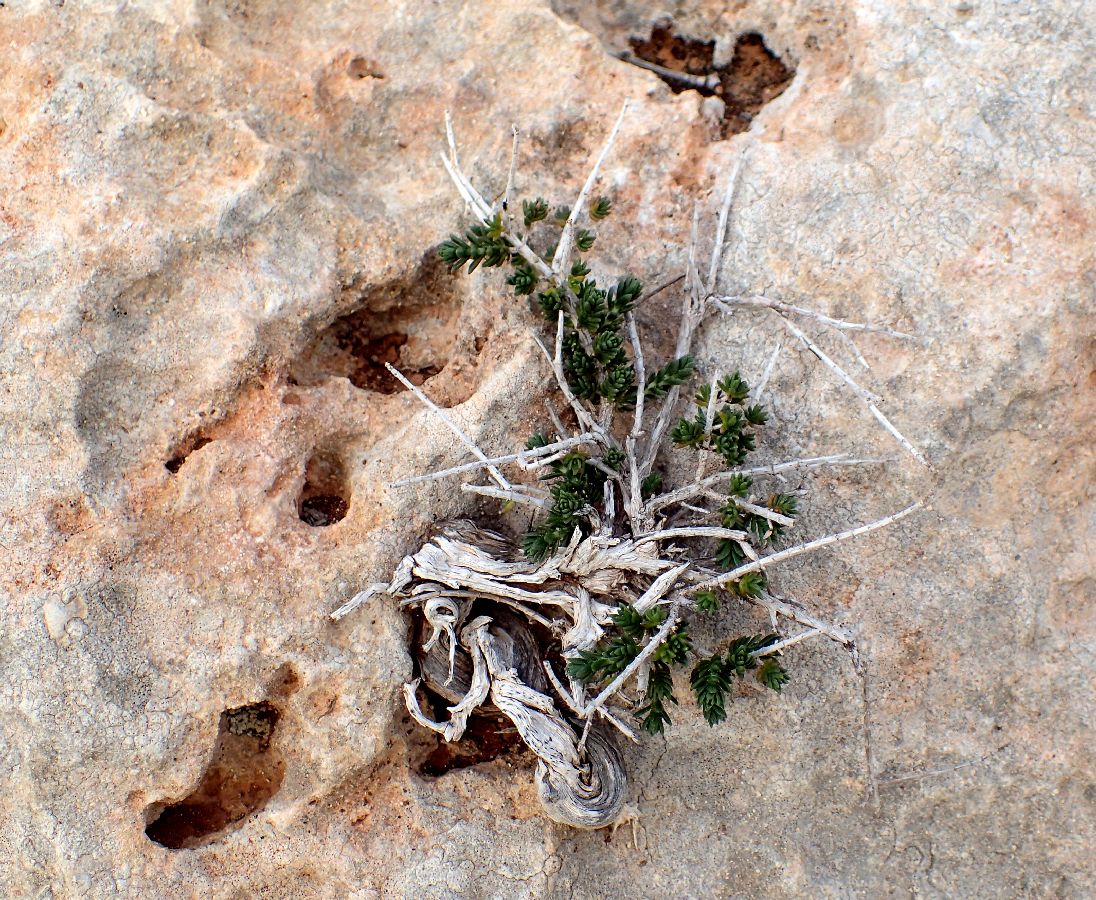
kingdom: Plantae
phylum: Tracheophyta
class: Magnoliopsida
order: Lamiales
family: Lamiaceae
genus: Thymbra
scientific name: Thymbra capitata
